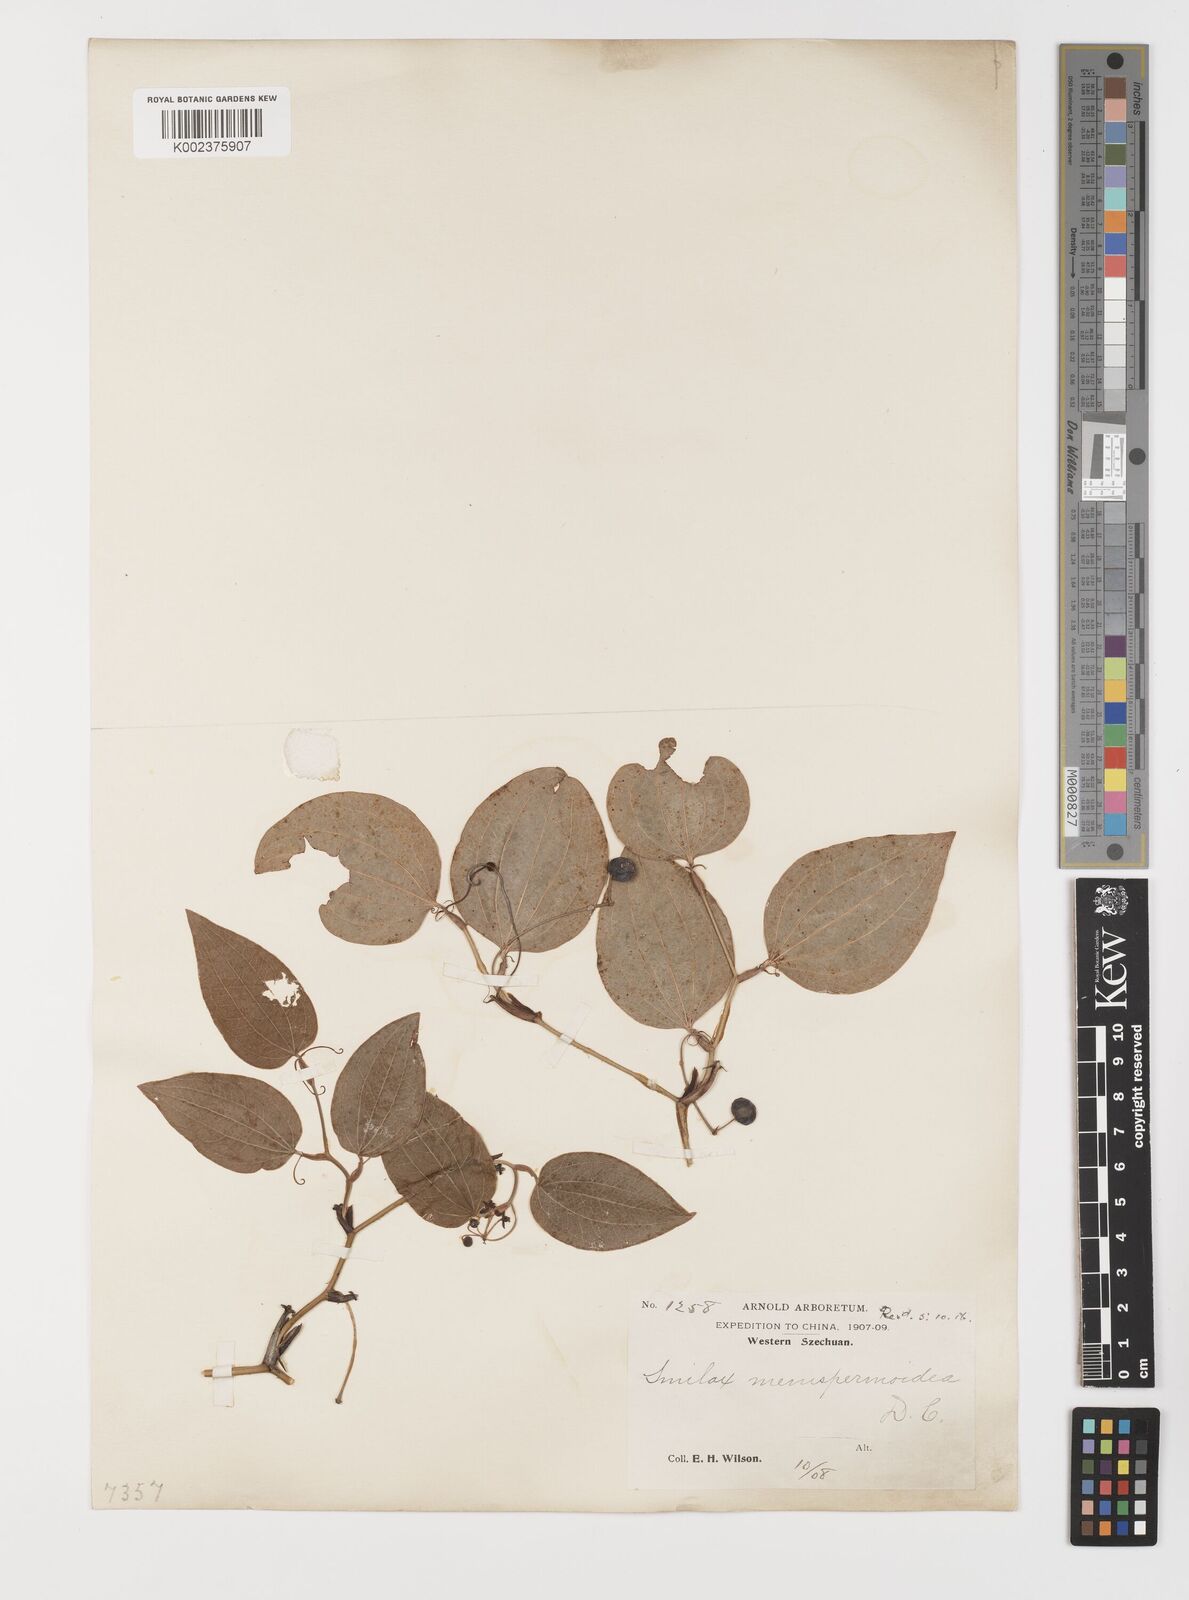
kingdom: Plantae
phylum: Tracheophyta
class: Liliopsida
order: Liliales
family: Smilacaceae
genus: Smilax
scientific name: Smilax menispermoidea
